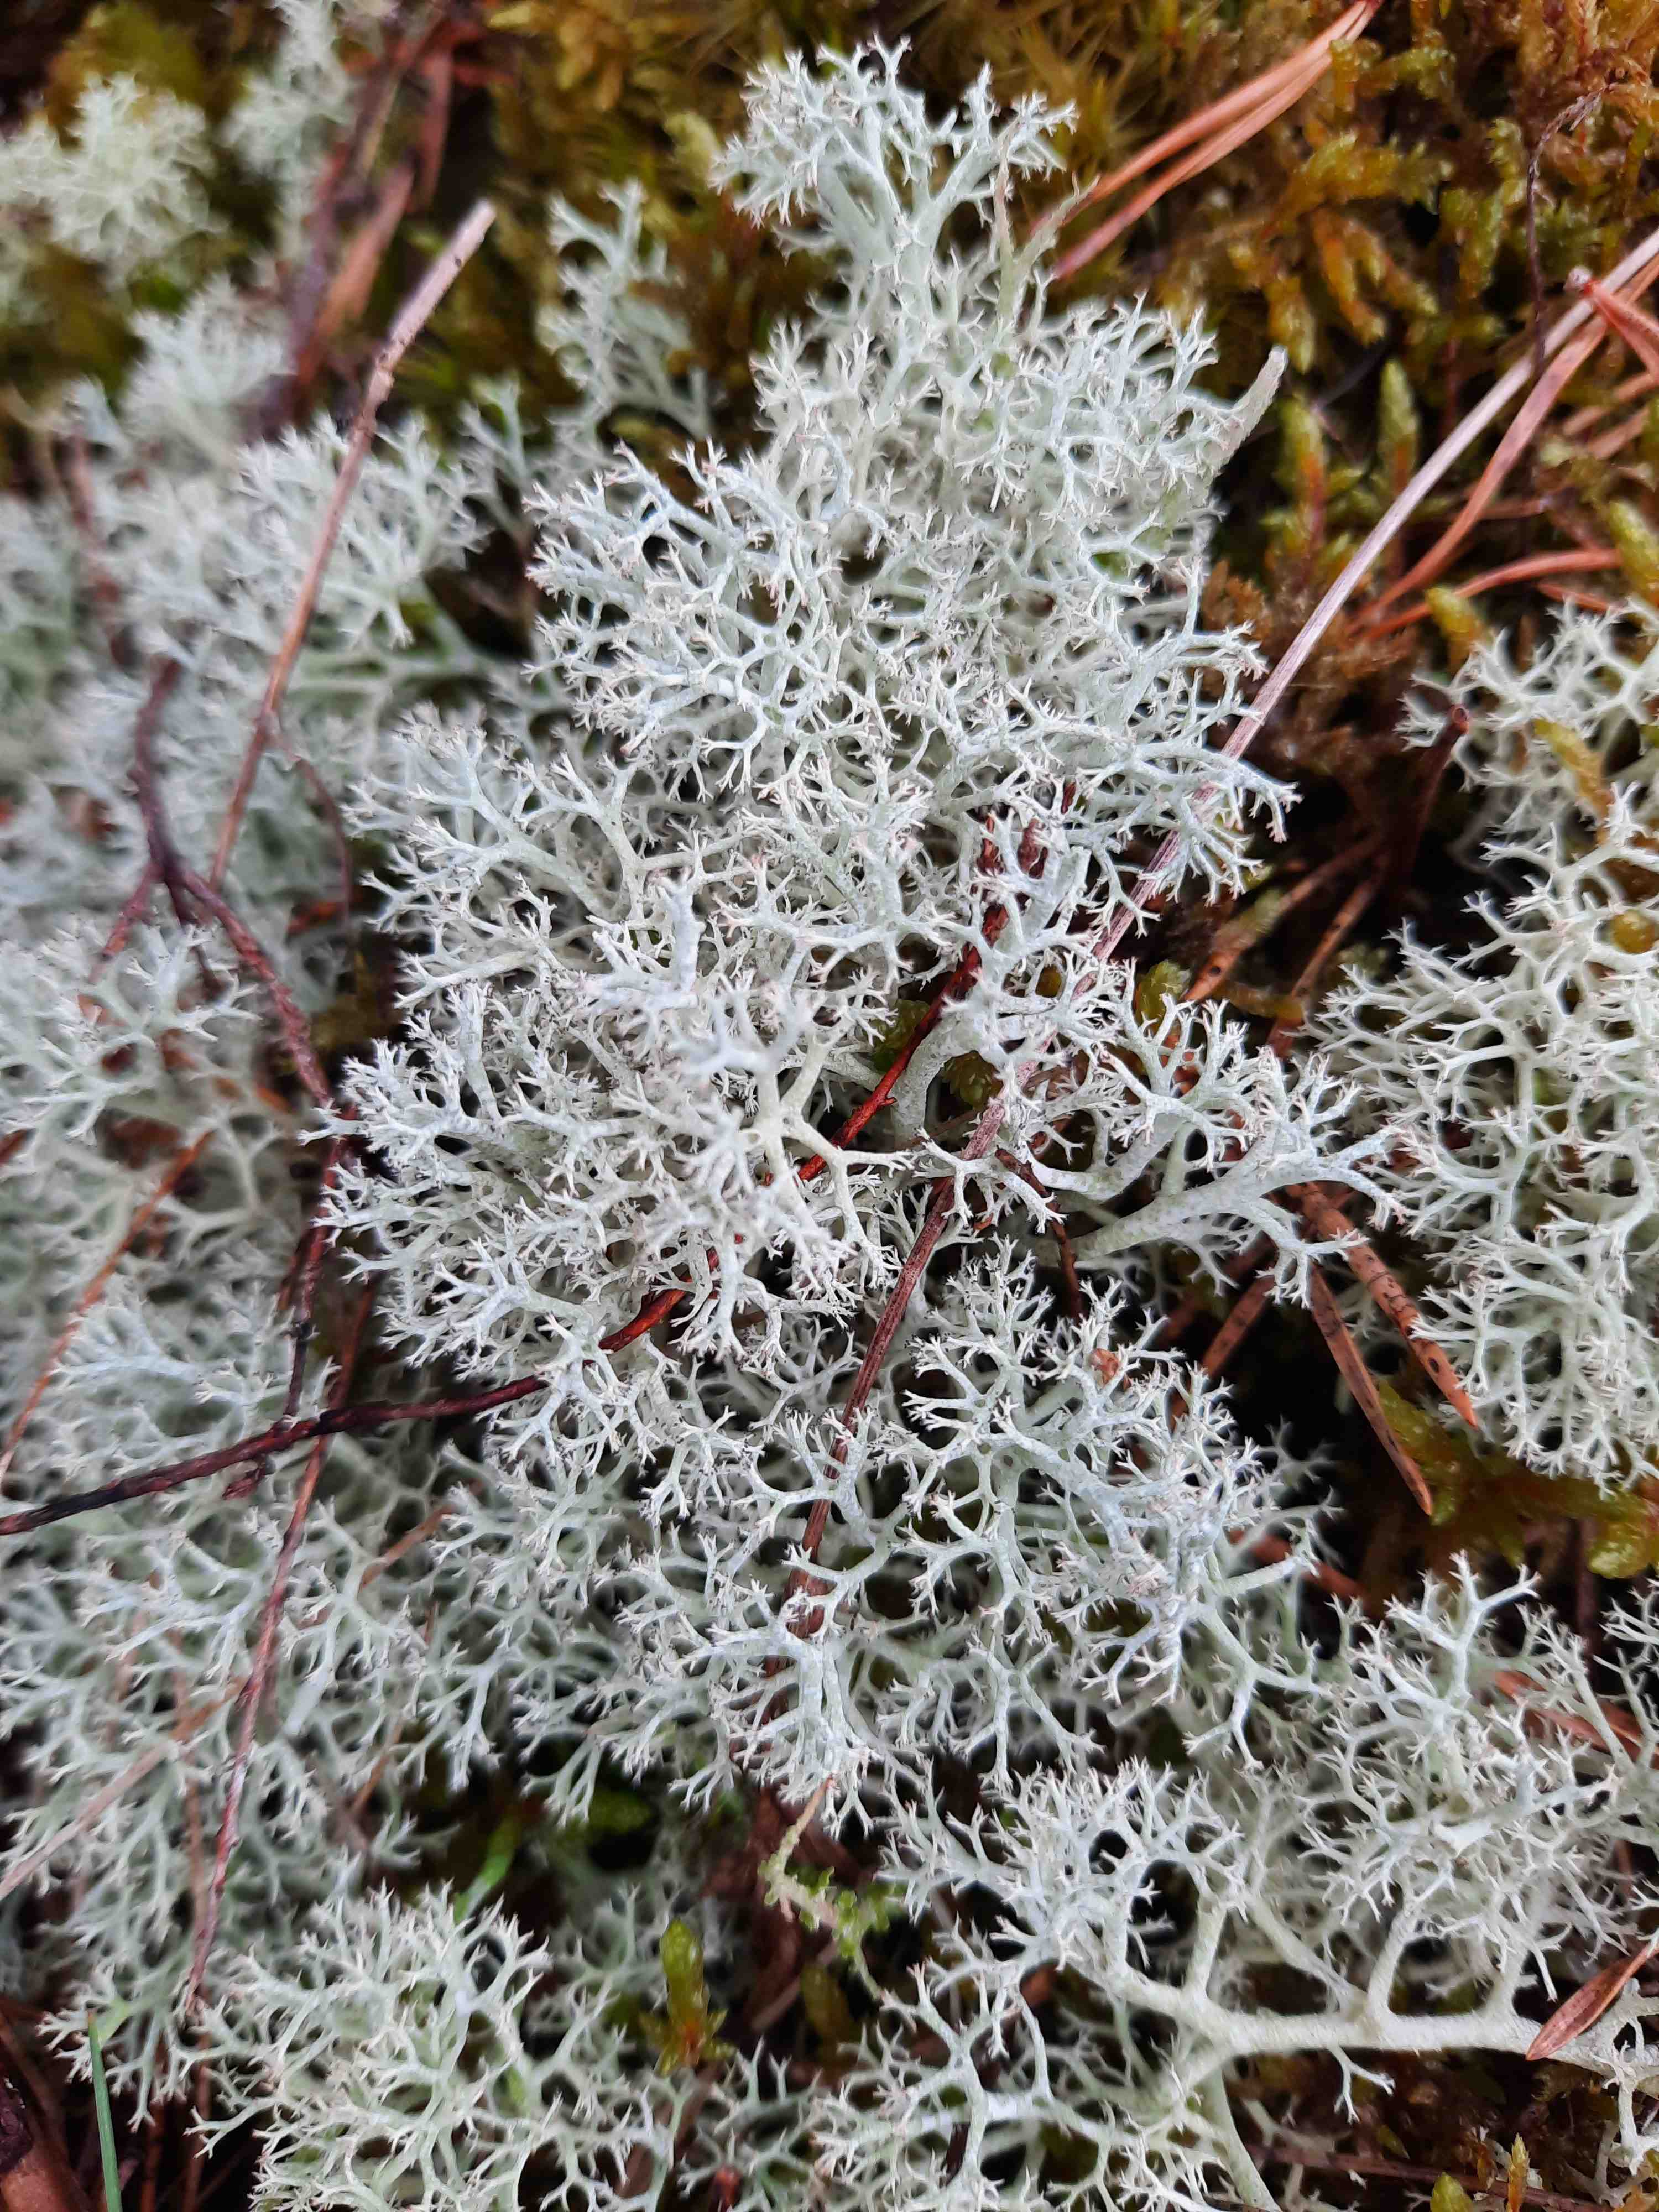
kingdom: Fungi
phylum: Ascomycota
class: Lecanoromycetes
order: Lecanorales
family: Cladoniaceae
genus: Cladonia
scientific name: Cladonia portentosa
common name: hede-rensdyrlav
